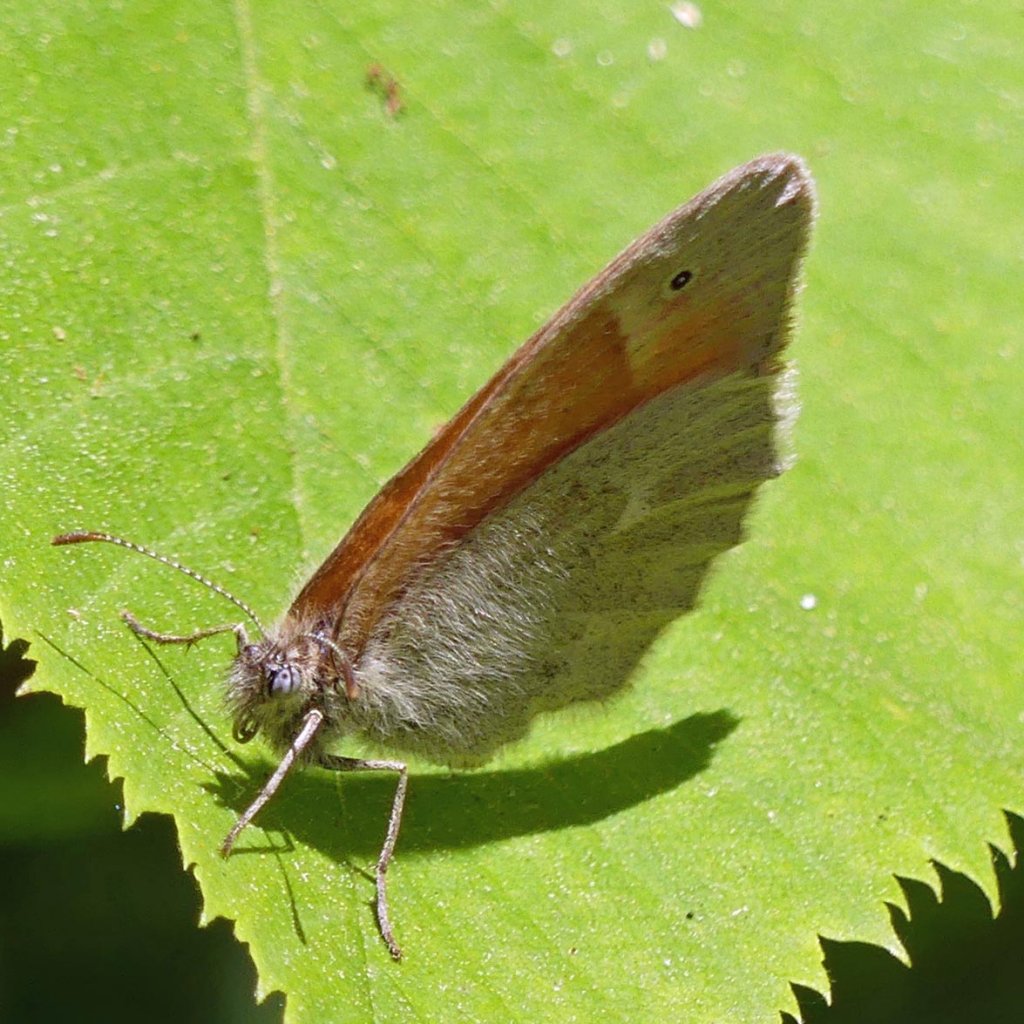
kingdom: Animalia
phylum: Arthropoda
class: Insecta
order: Lepidoptera
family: Nymphalidae
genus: Coenonympha
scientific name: Coenonympha tullia
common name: Large Heath
